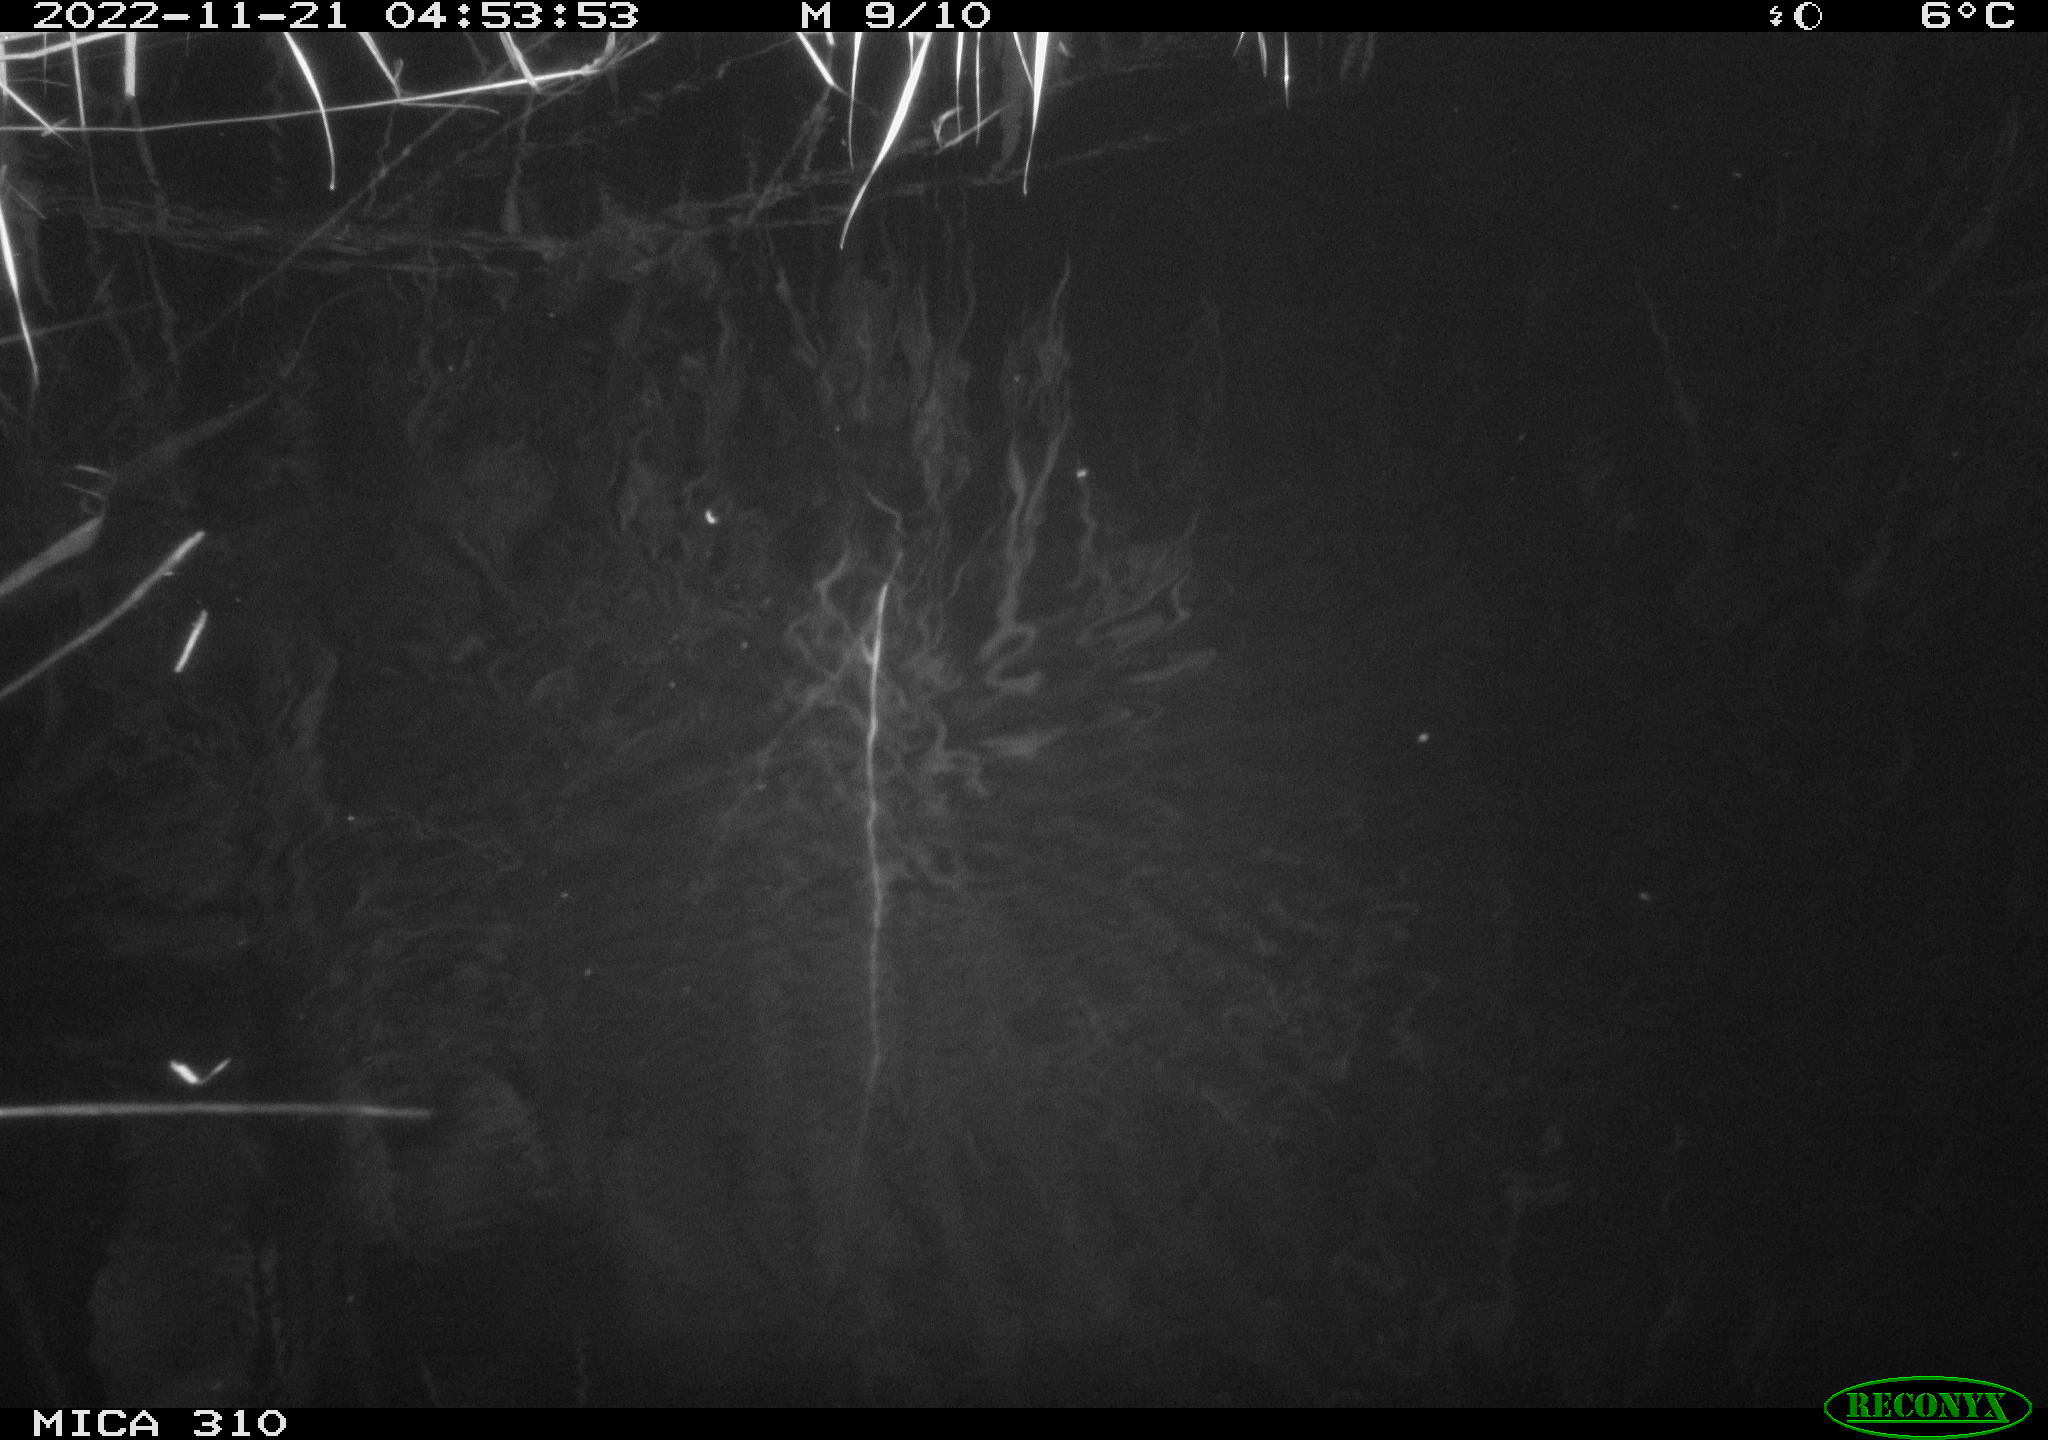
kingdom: Animalia
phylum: Chordata
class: Mammalia
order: Rodentia
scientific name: Rodentia
